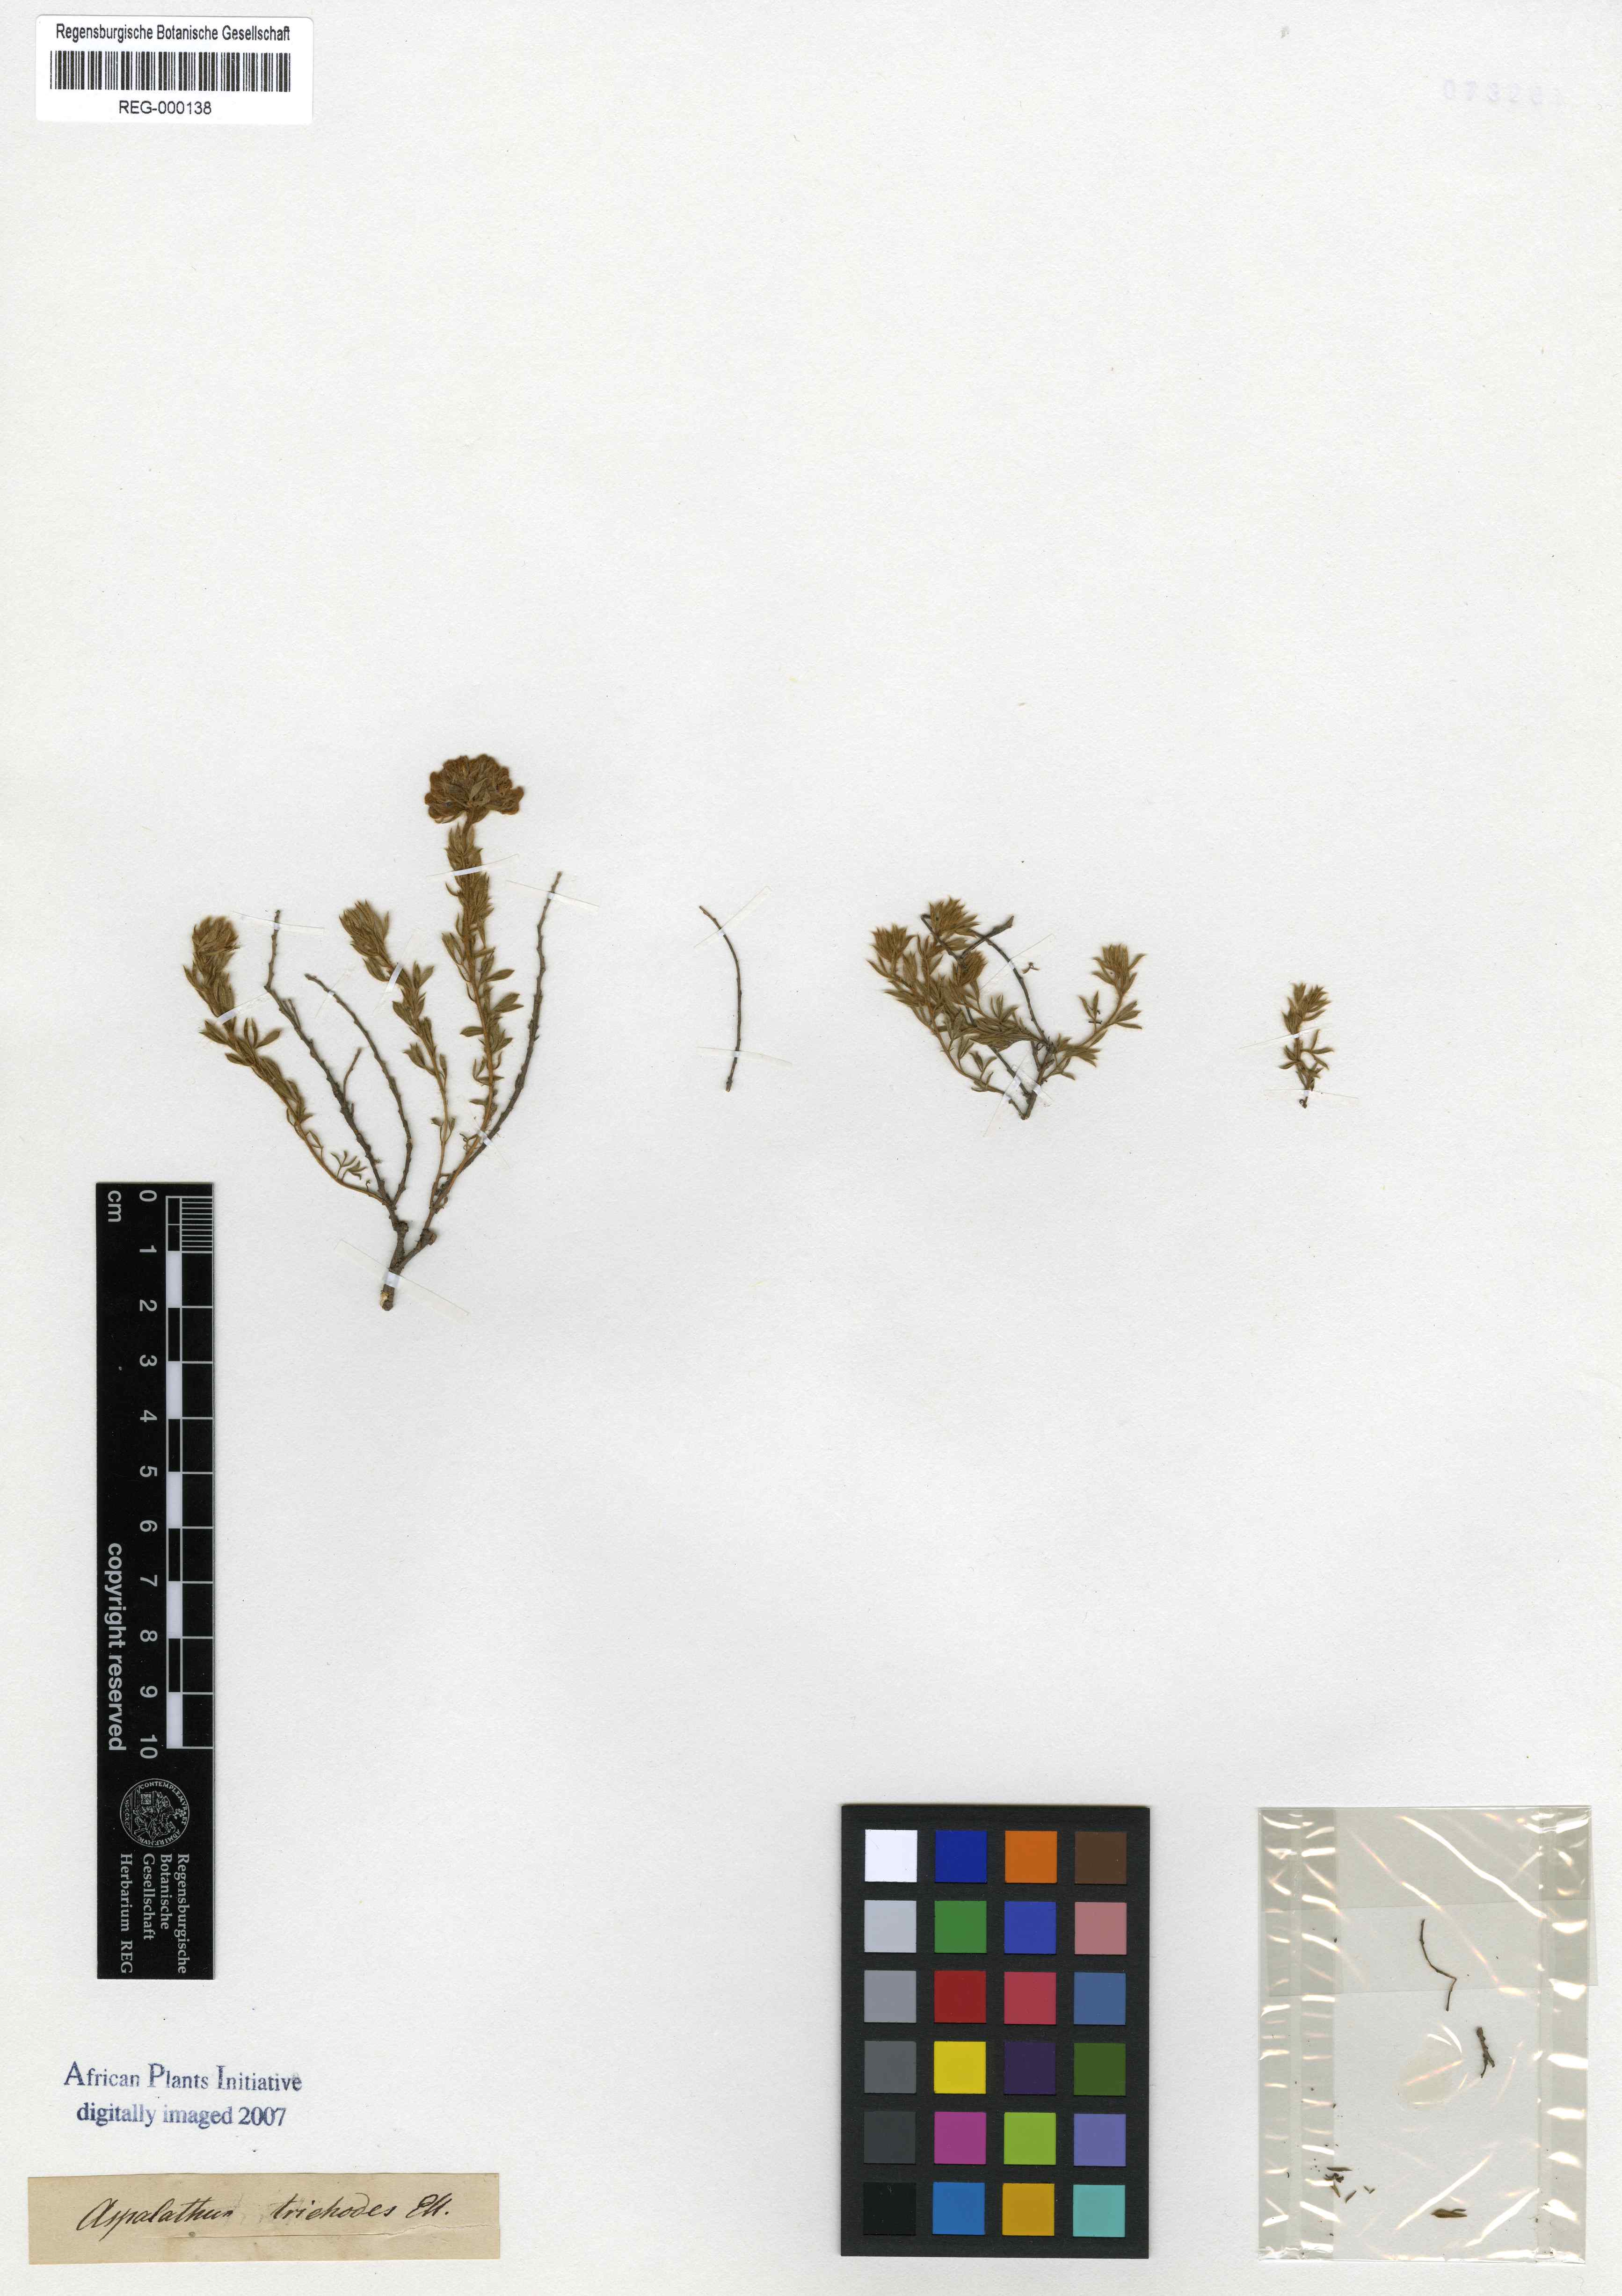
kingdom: Plantae
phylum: Tracheophyta
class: Magnoliopsida
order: Fabales
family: Fabaceae
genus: Lotononis
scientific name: Lotononis trichodes
